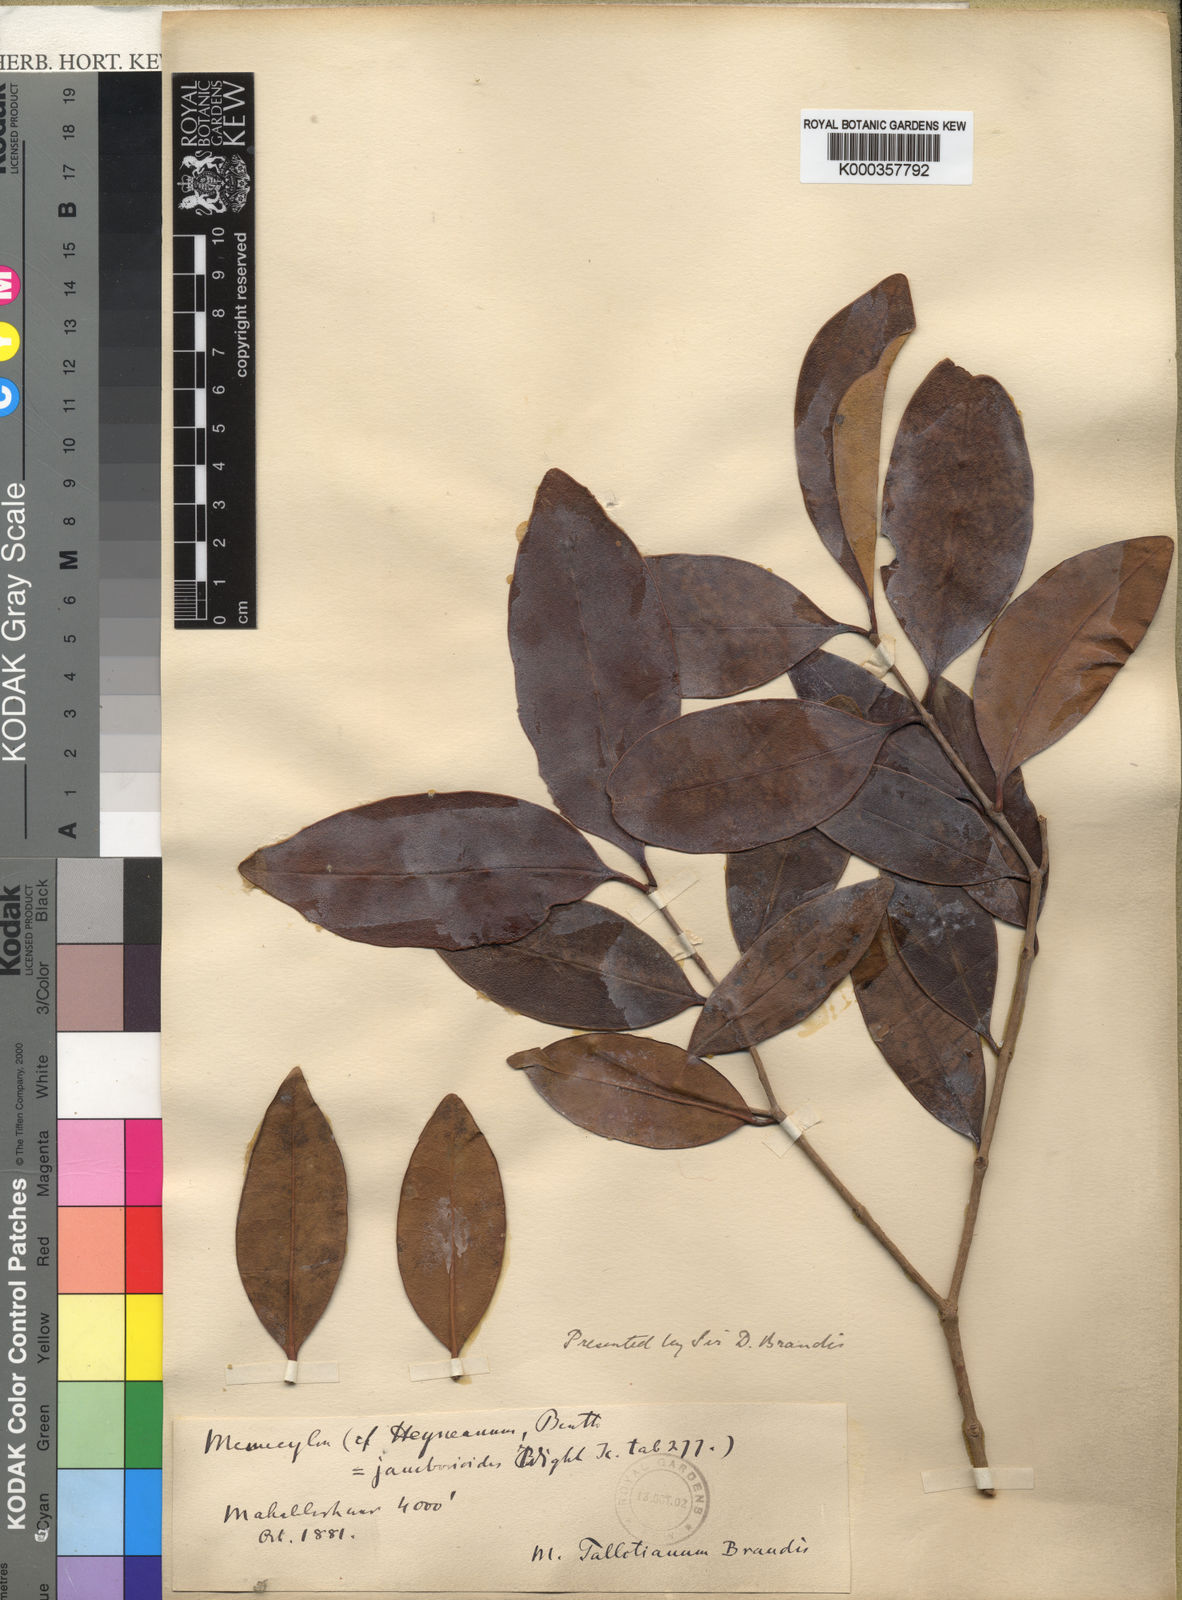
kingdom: Plantae
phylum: Tracheophyta
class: Magnoliopsida
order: Myrtales
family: Melastomataceae
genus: Memecylon
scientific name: Memecylon talbotianum
